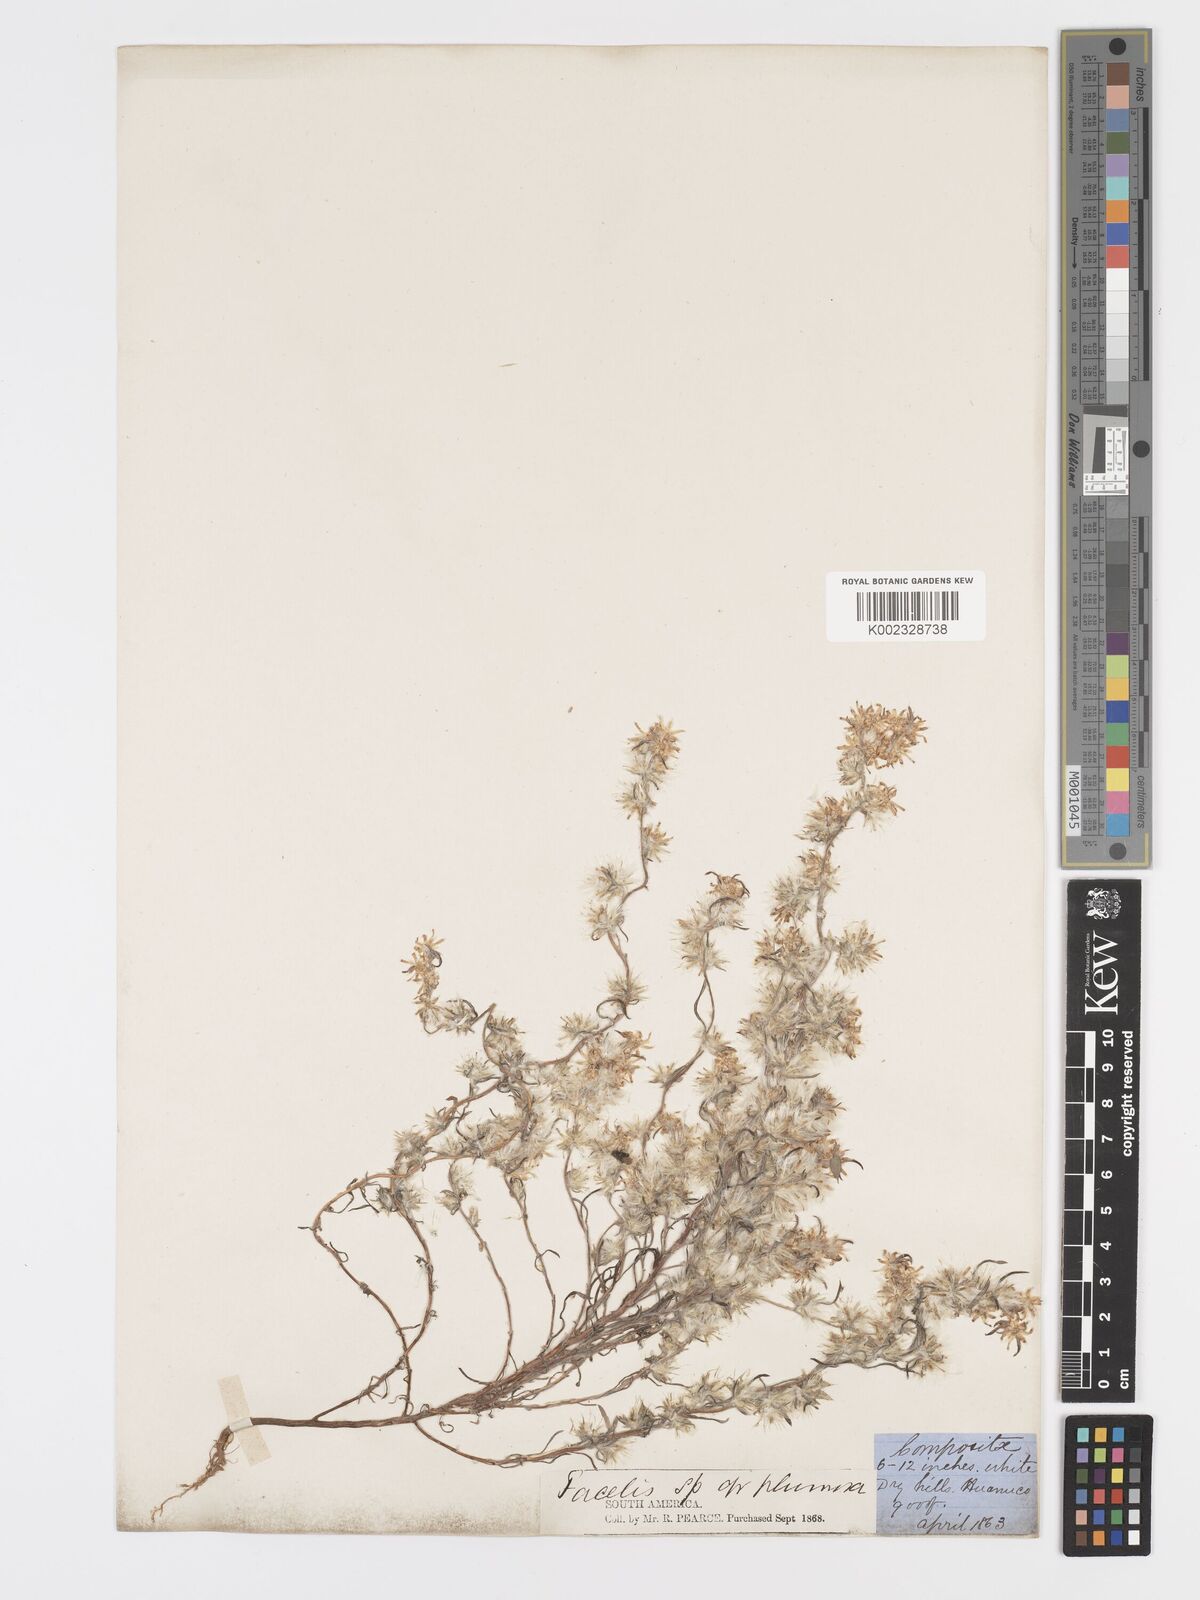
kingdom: Plantae
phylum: Tracheophyta
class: Magnoliopsida
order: Asterales
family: Asteraceae
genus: Facelis
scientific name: Facelis plumosa
